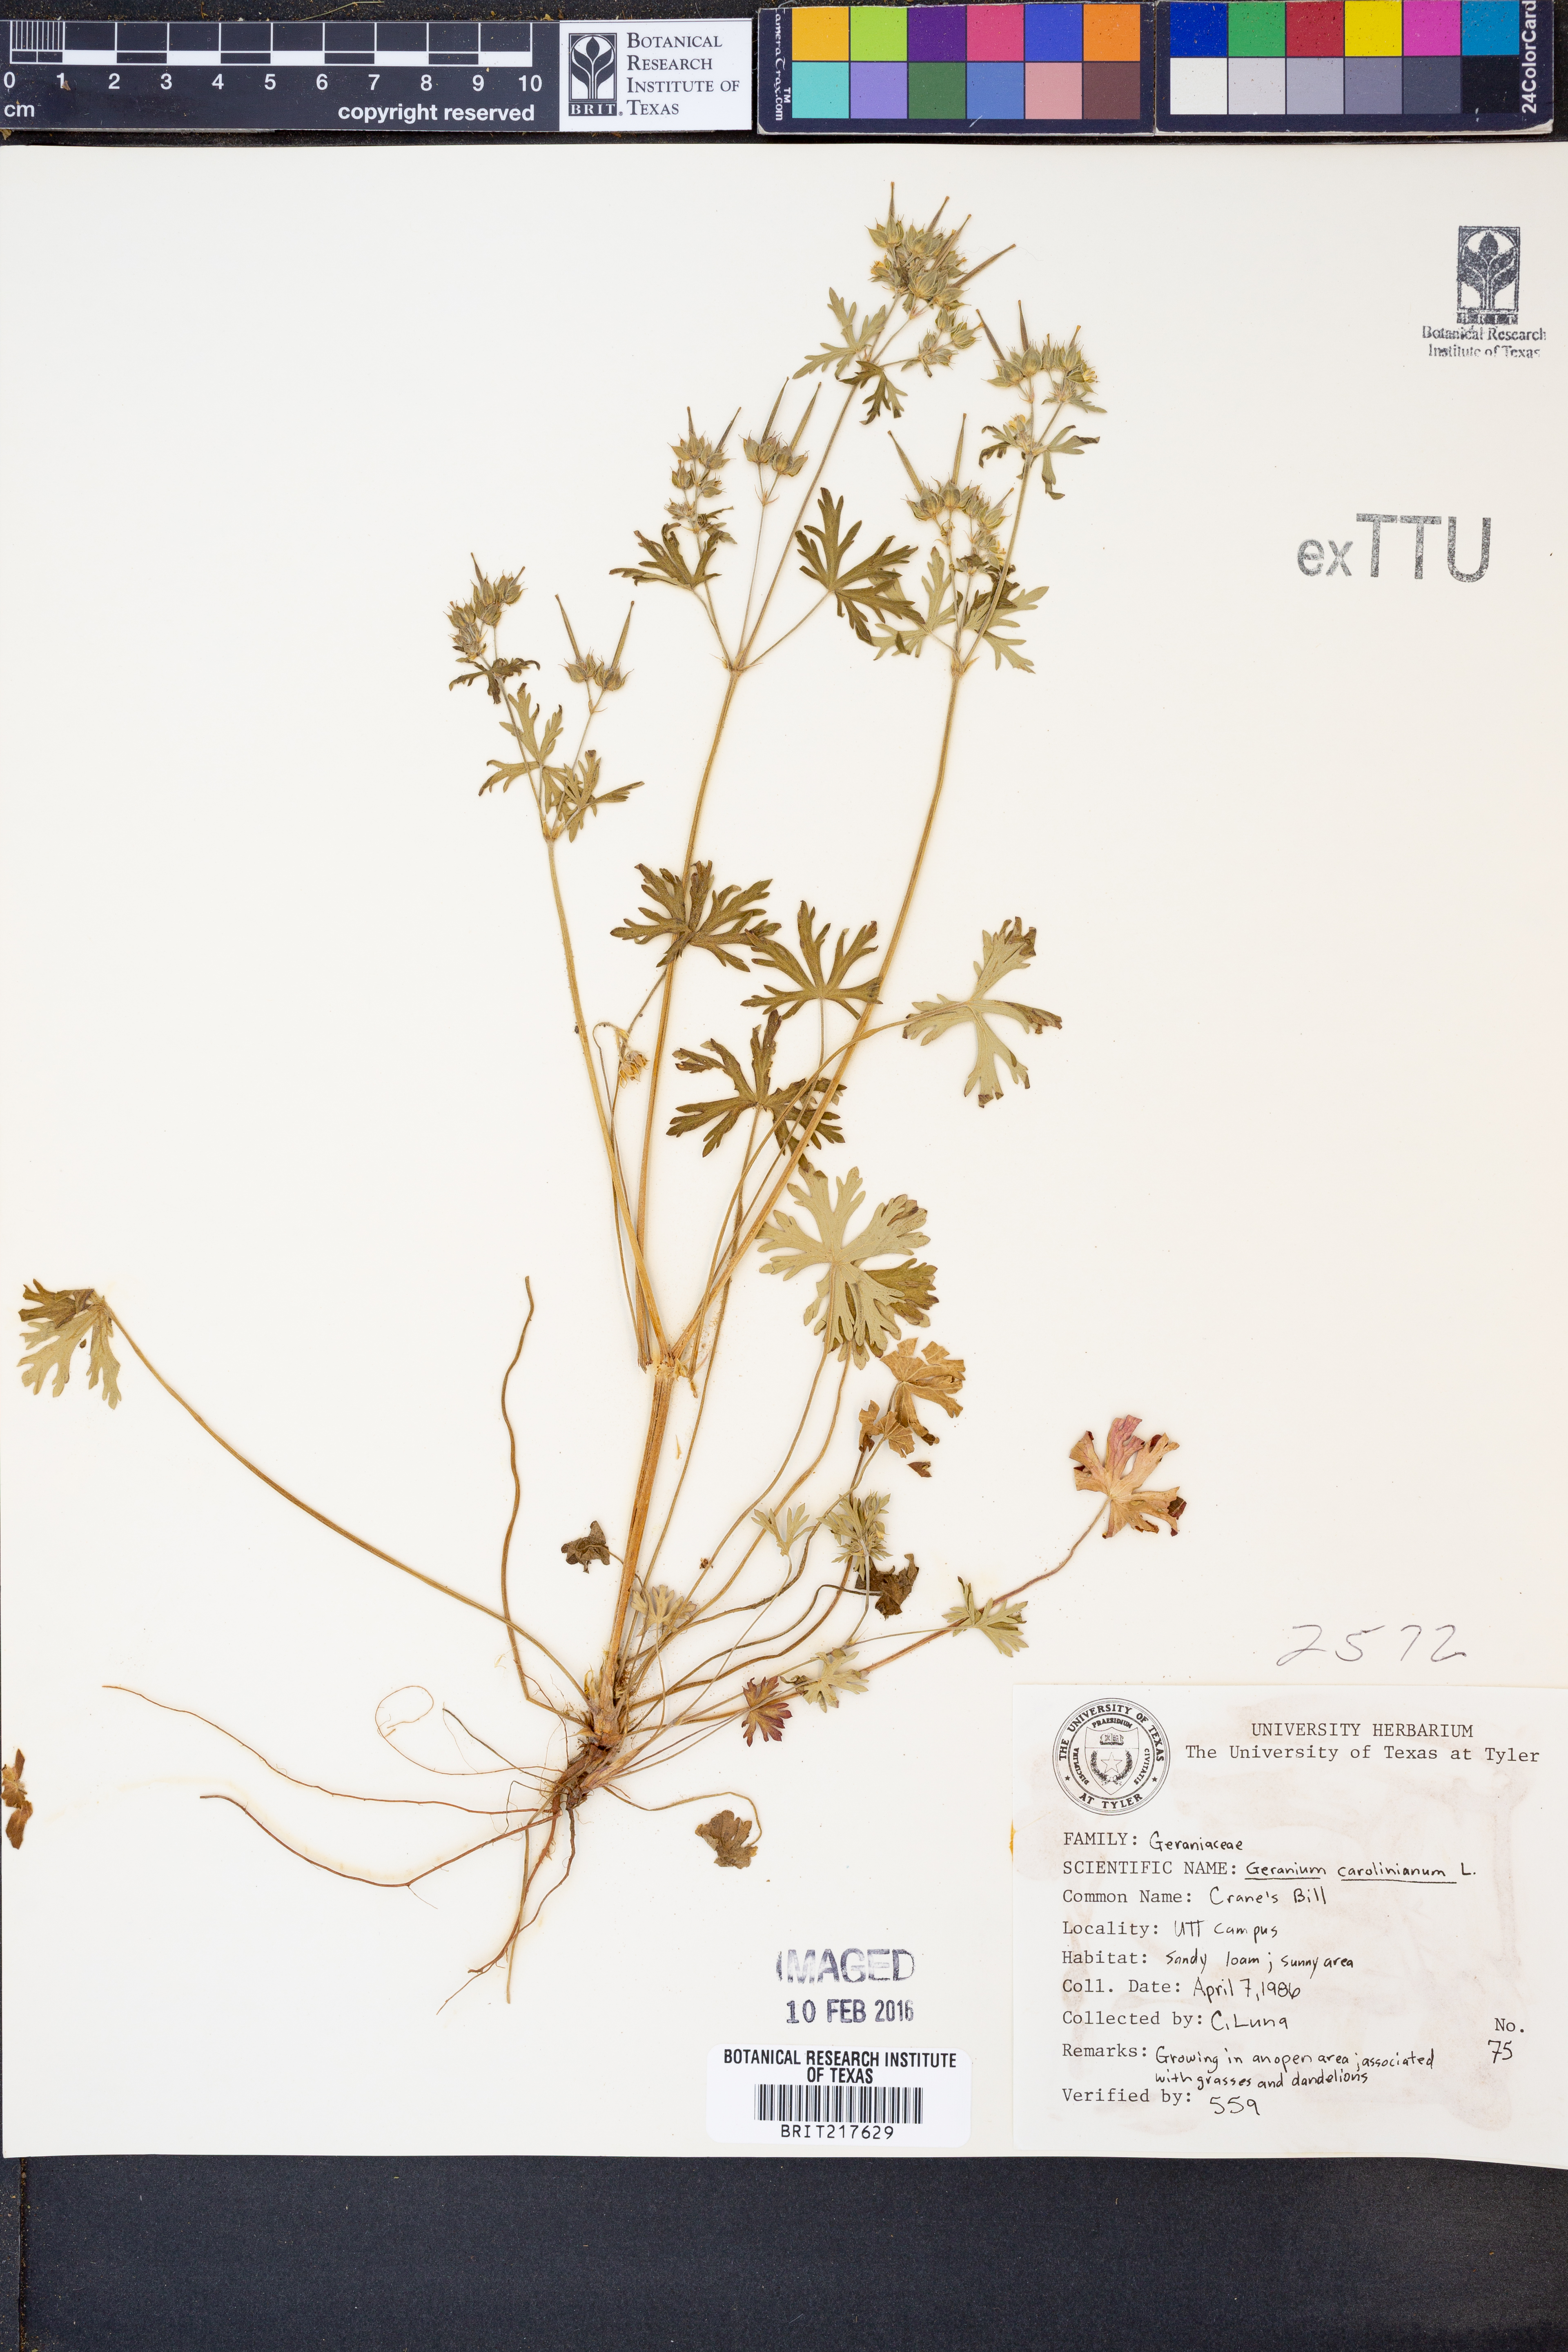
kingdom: Plantae
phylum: Tracheophyta
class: Magnoliopsida
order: Geraniales
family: Geraniaceae
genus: Geranium
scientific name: Geranium carolinianum
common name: Carolina crane's-bill
